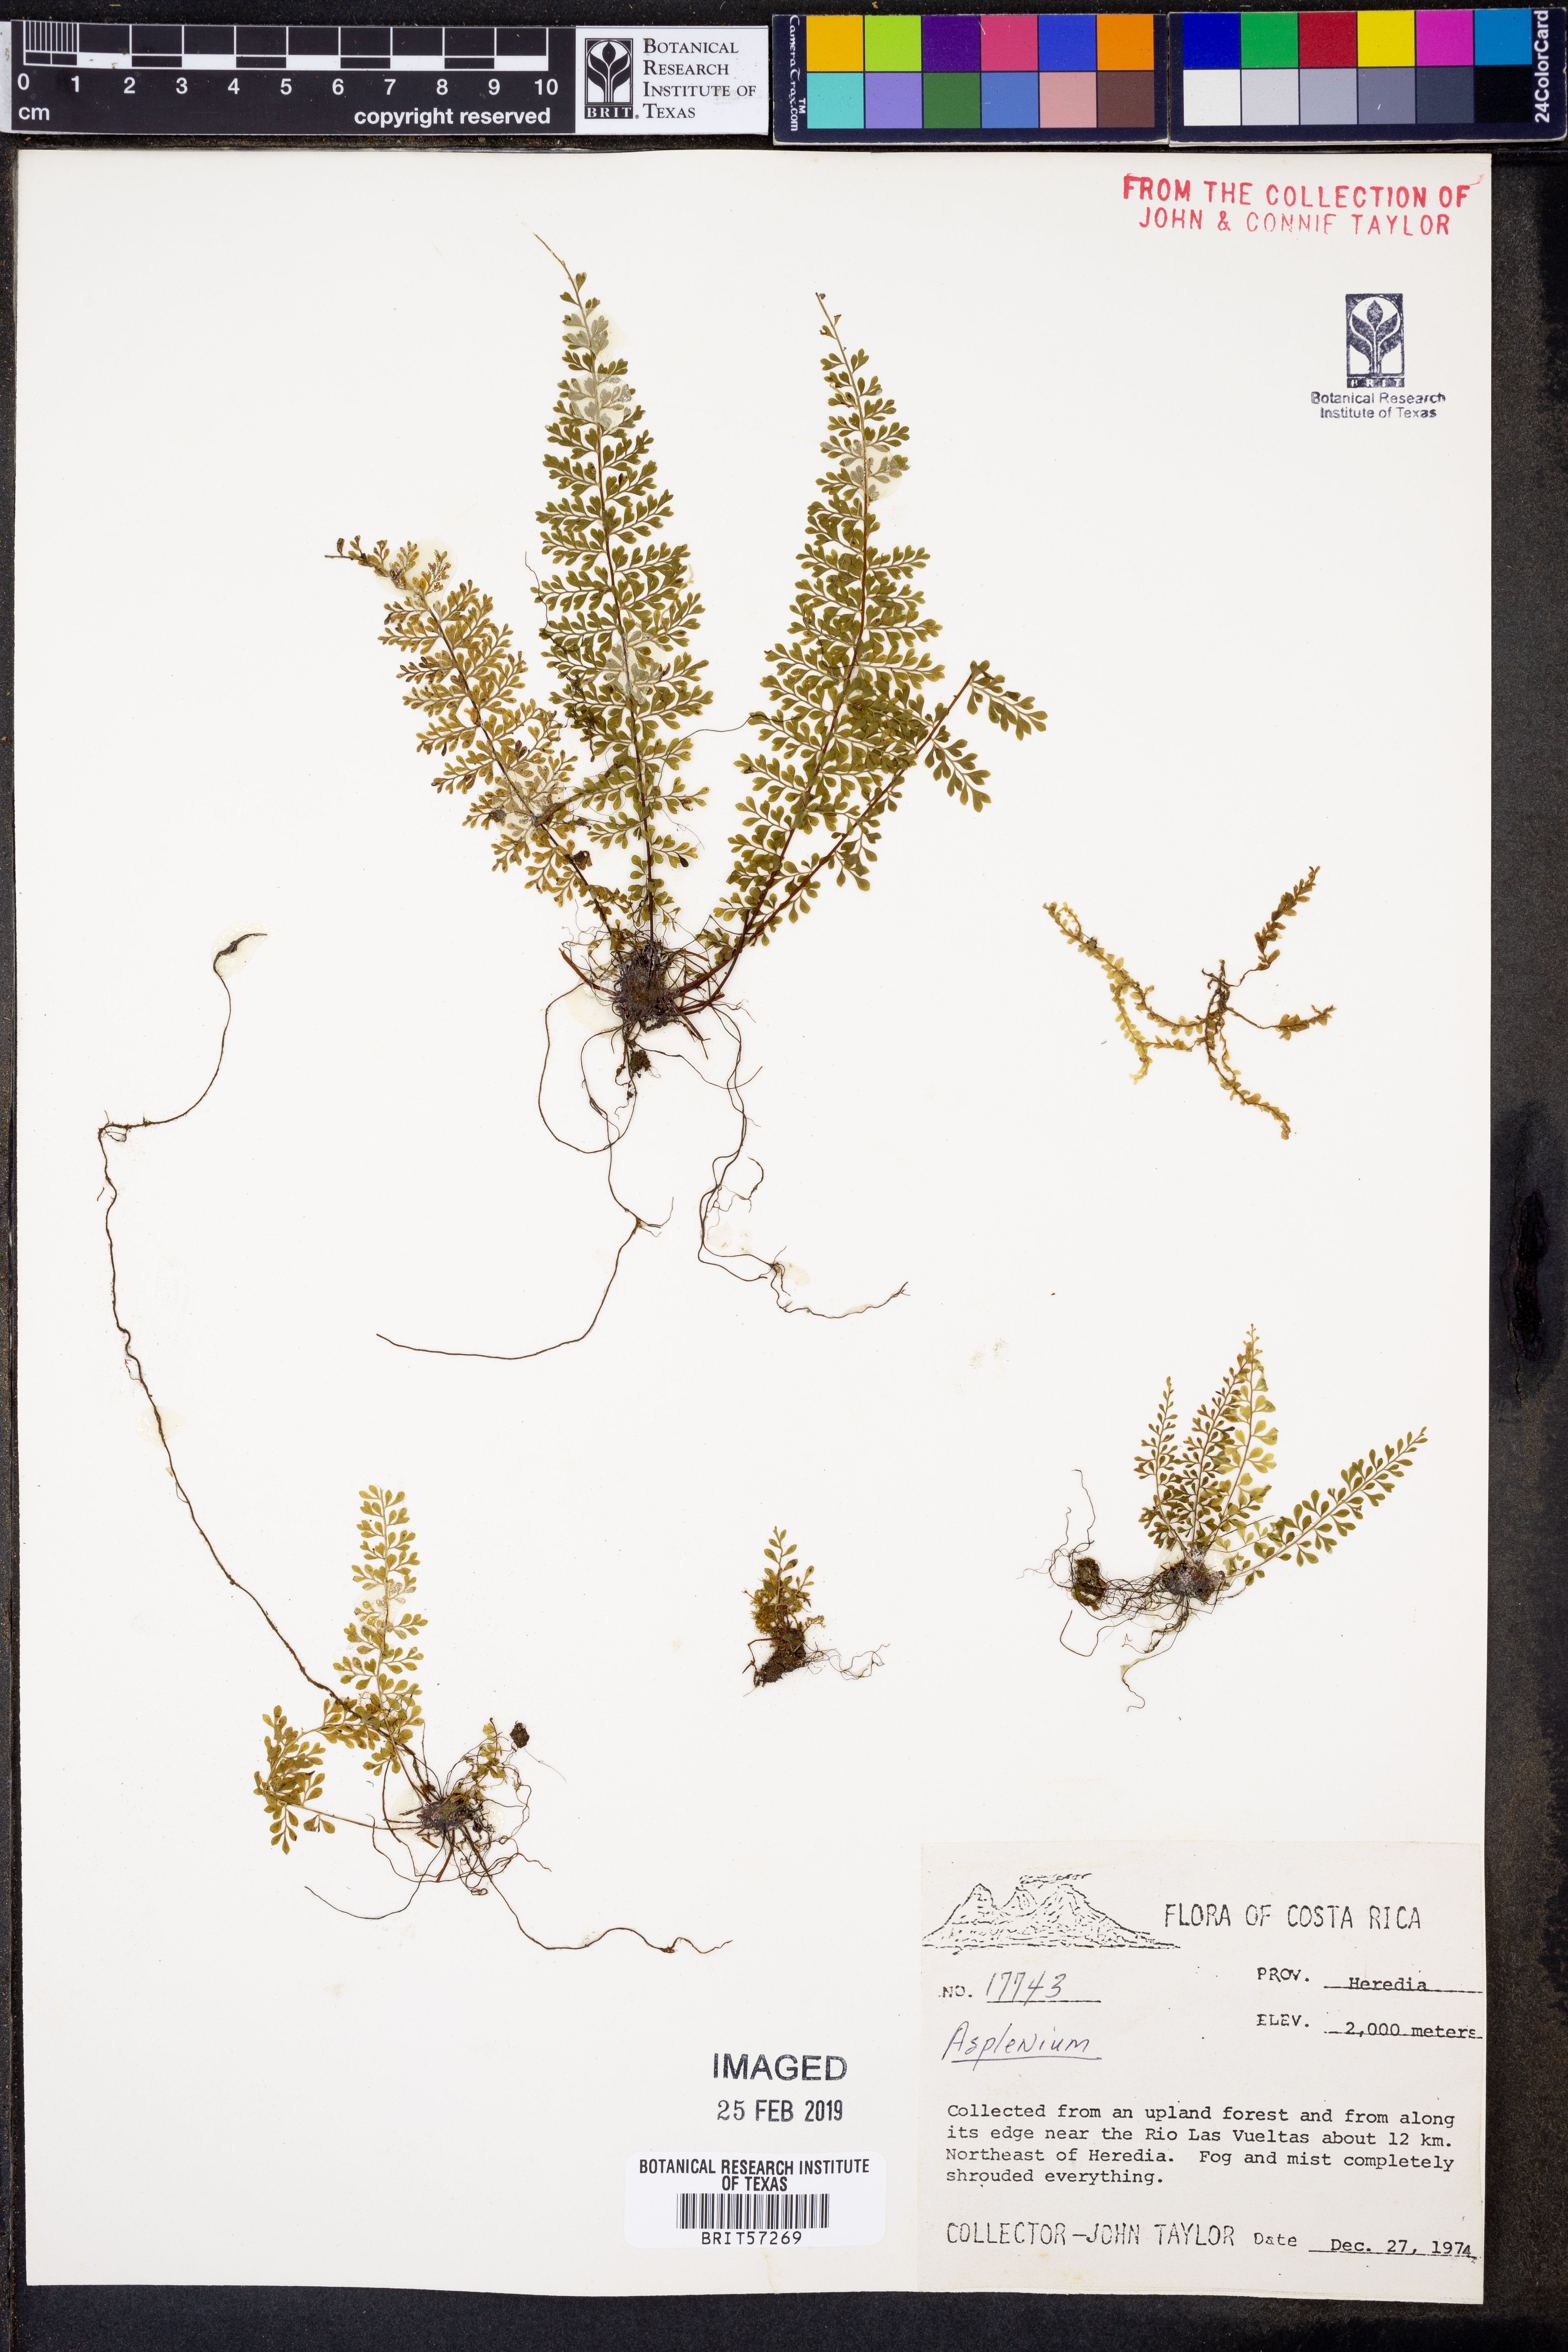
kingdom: Plantae
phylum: Tracheophyta
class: Polypodiopsida
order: Polypodiales
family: Aspleniaceae
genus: Asplenium
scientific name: Asplenium
